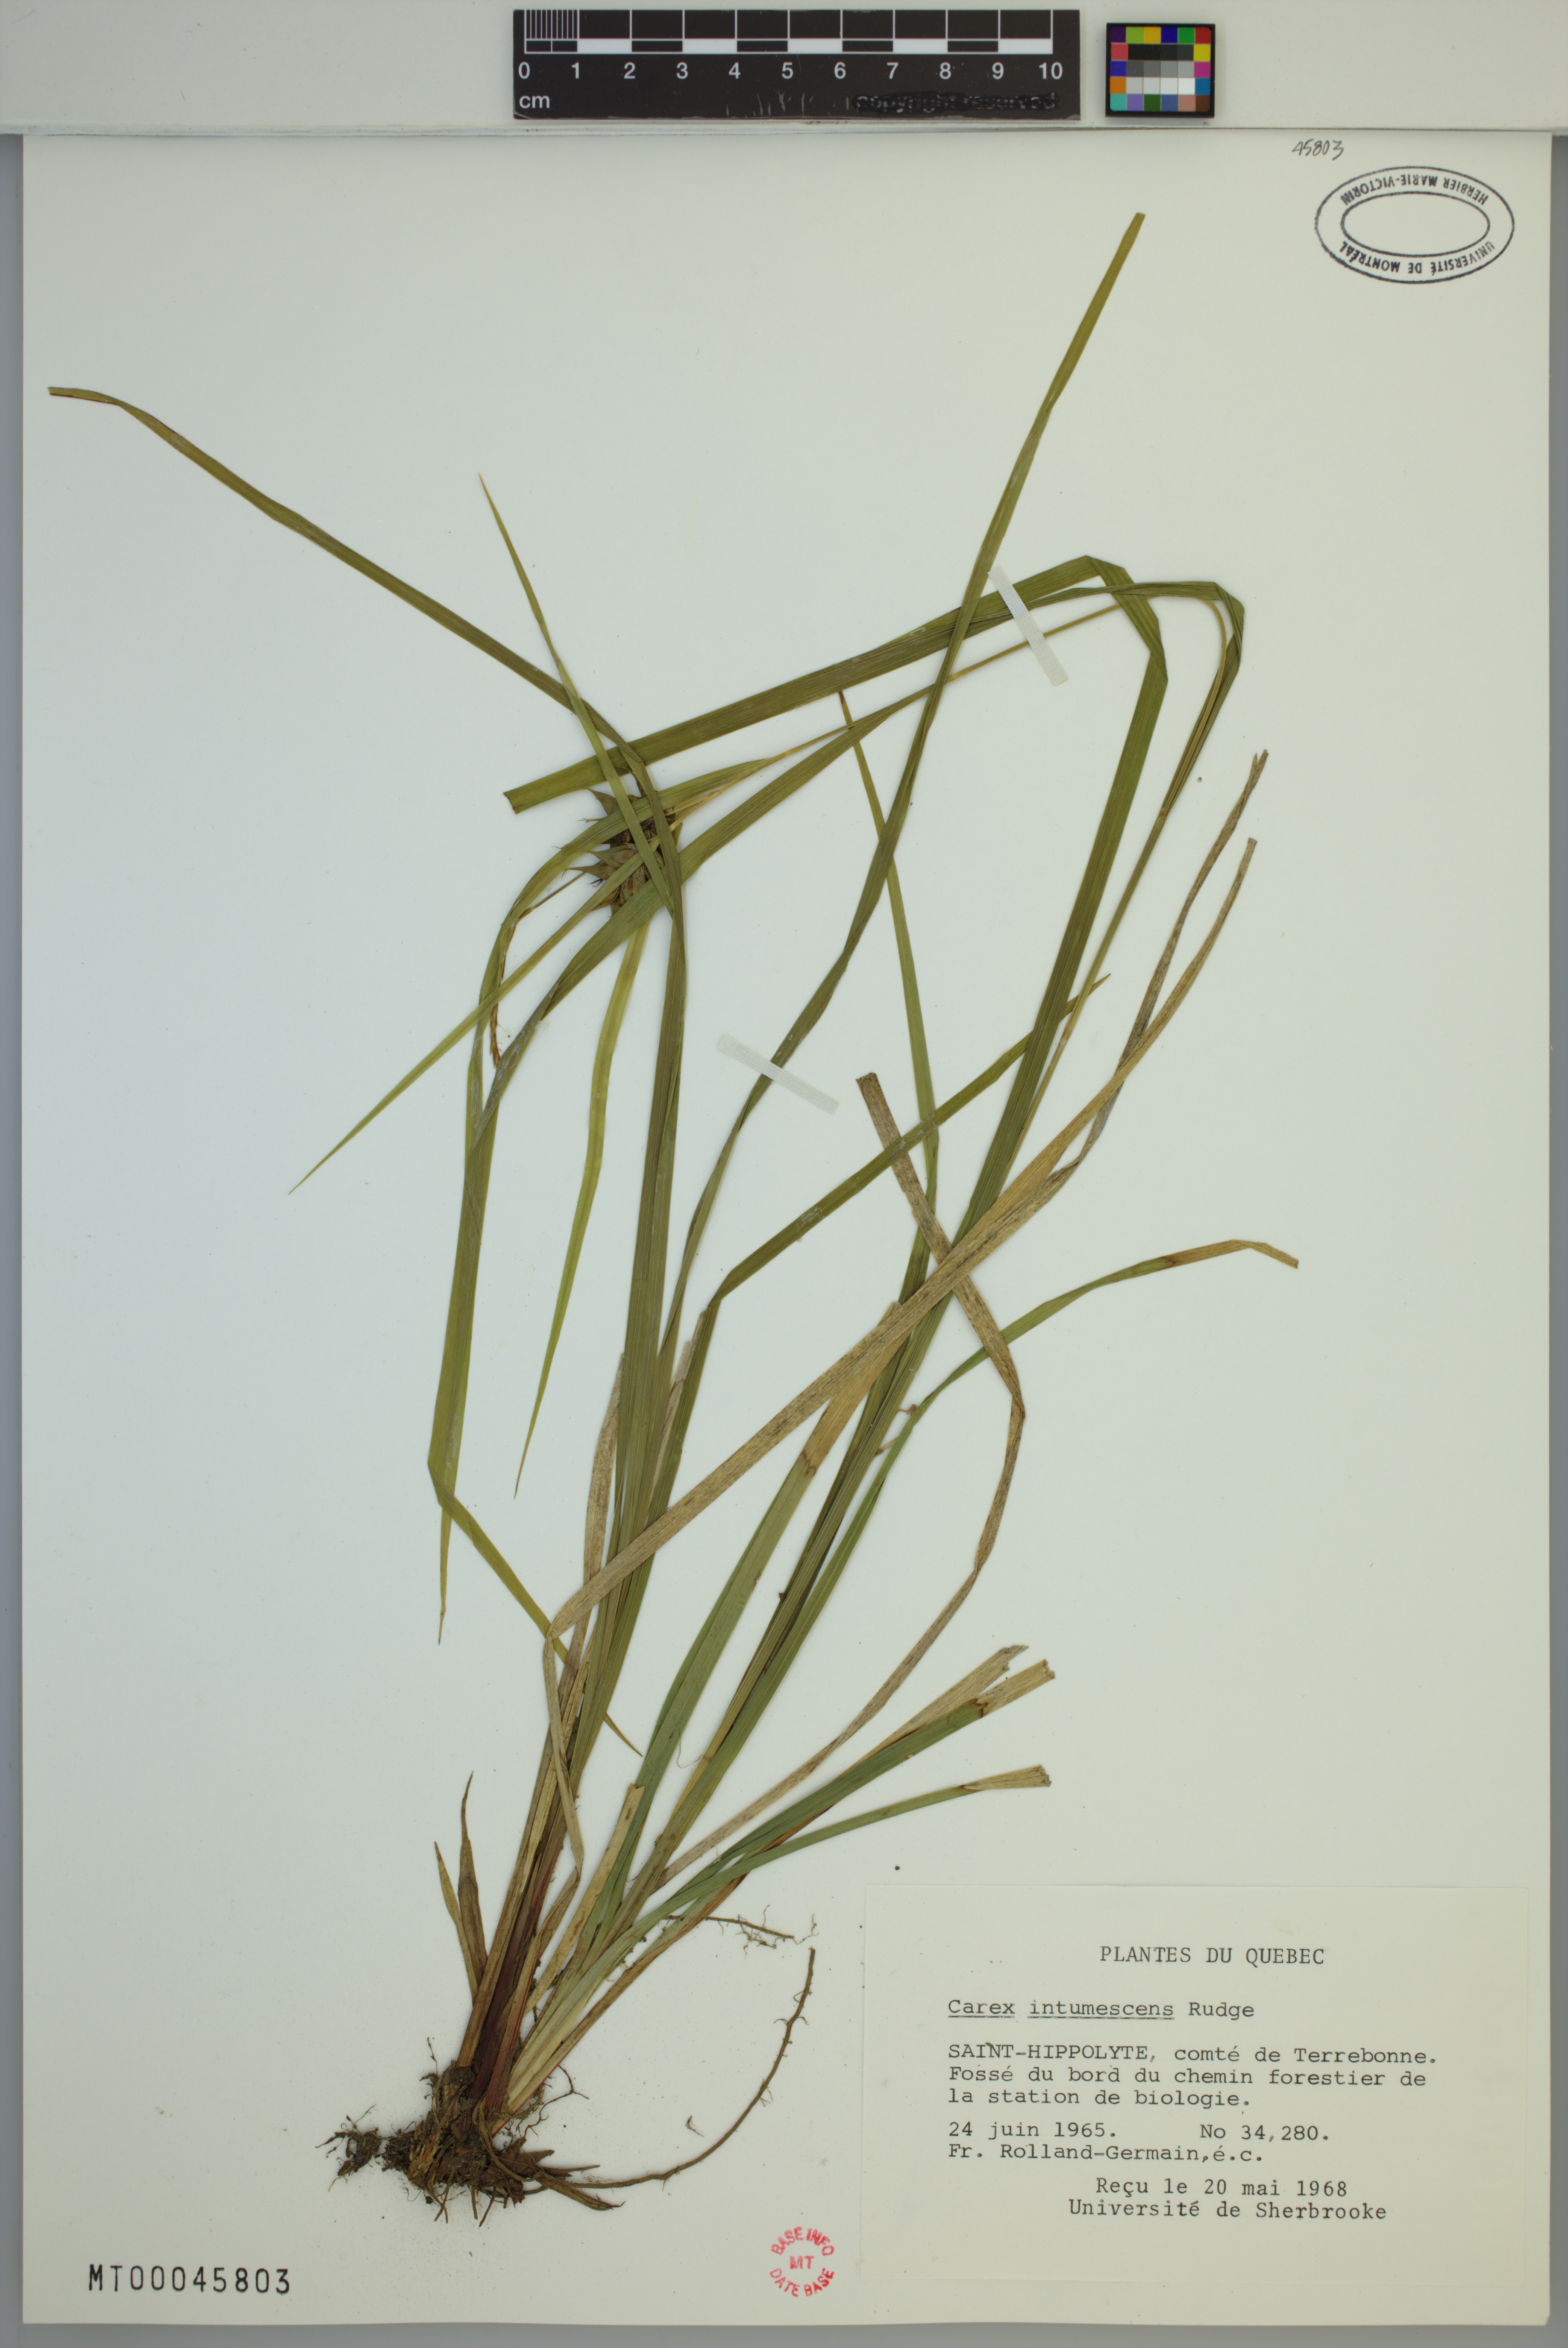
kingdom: Plantae
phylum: Tracheophyta
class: Liliopsida
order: Poales
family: Cyperaceae
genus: Carex
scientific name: Carex intumescens
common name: Greater bladder sedge
